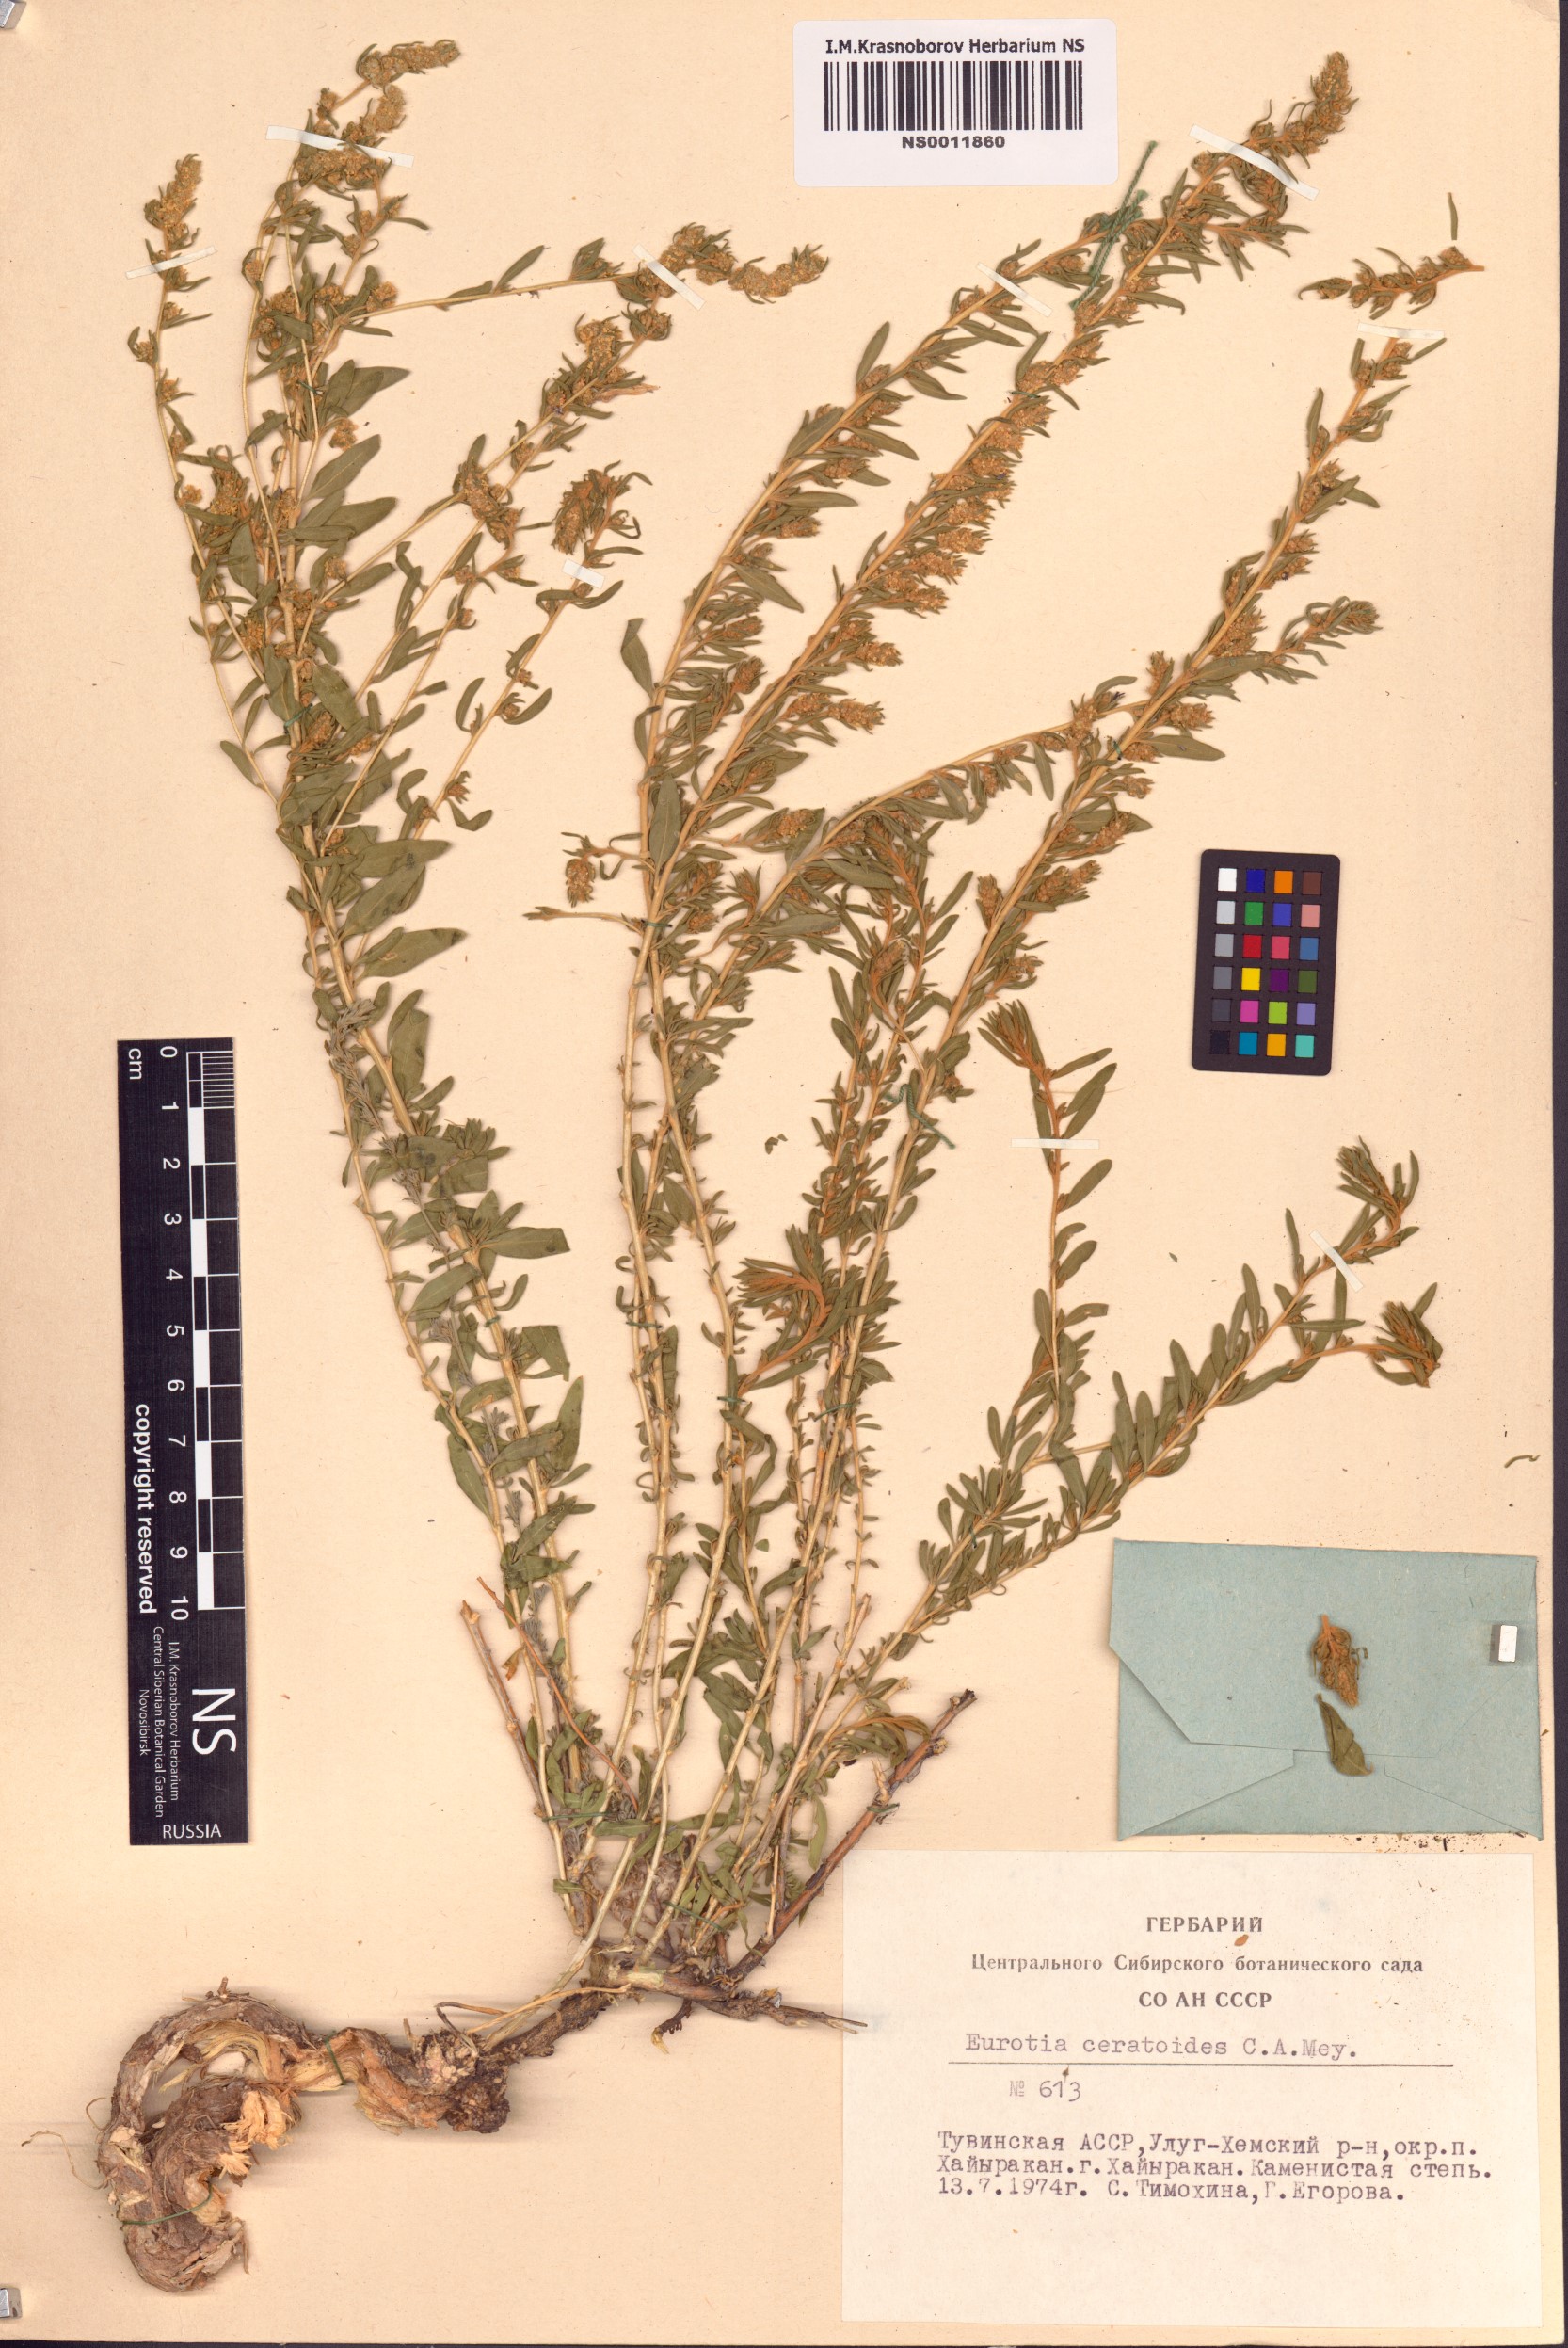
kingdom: Plantae
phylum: Tracheophyta
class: Magnoliopsida
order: Caryophyllales
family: Amaranthaceae
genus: Krascheninnikovia
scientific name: Krascheninnikovia ceratoides
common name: Pamirian winterfat
